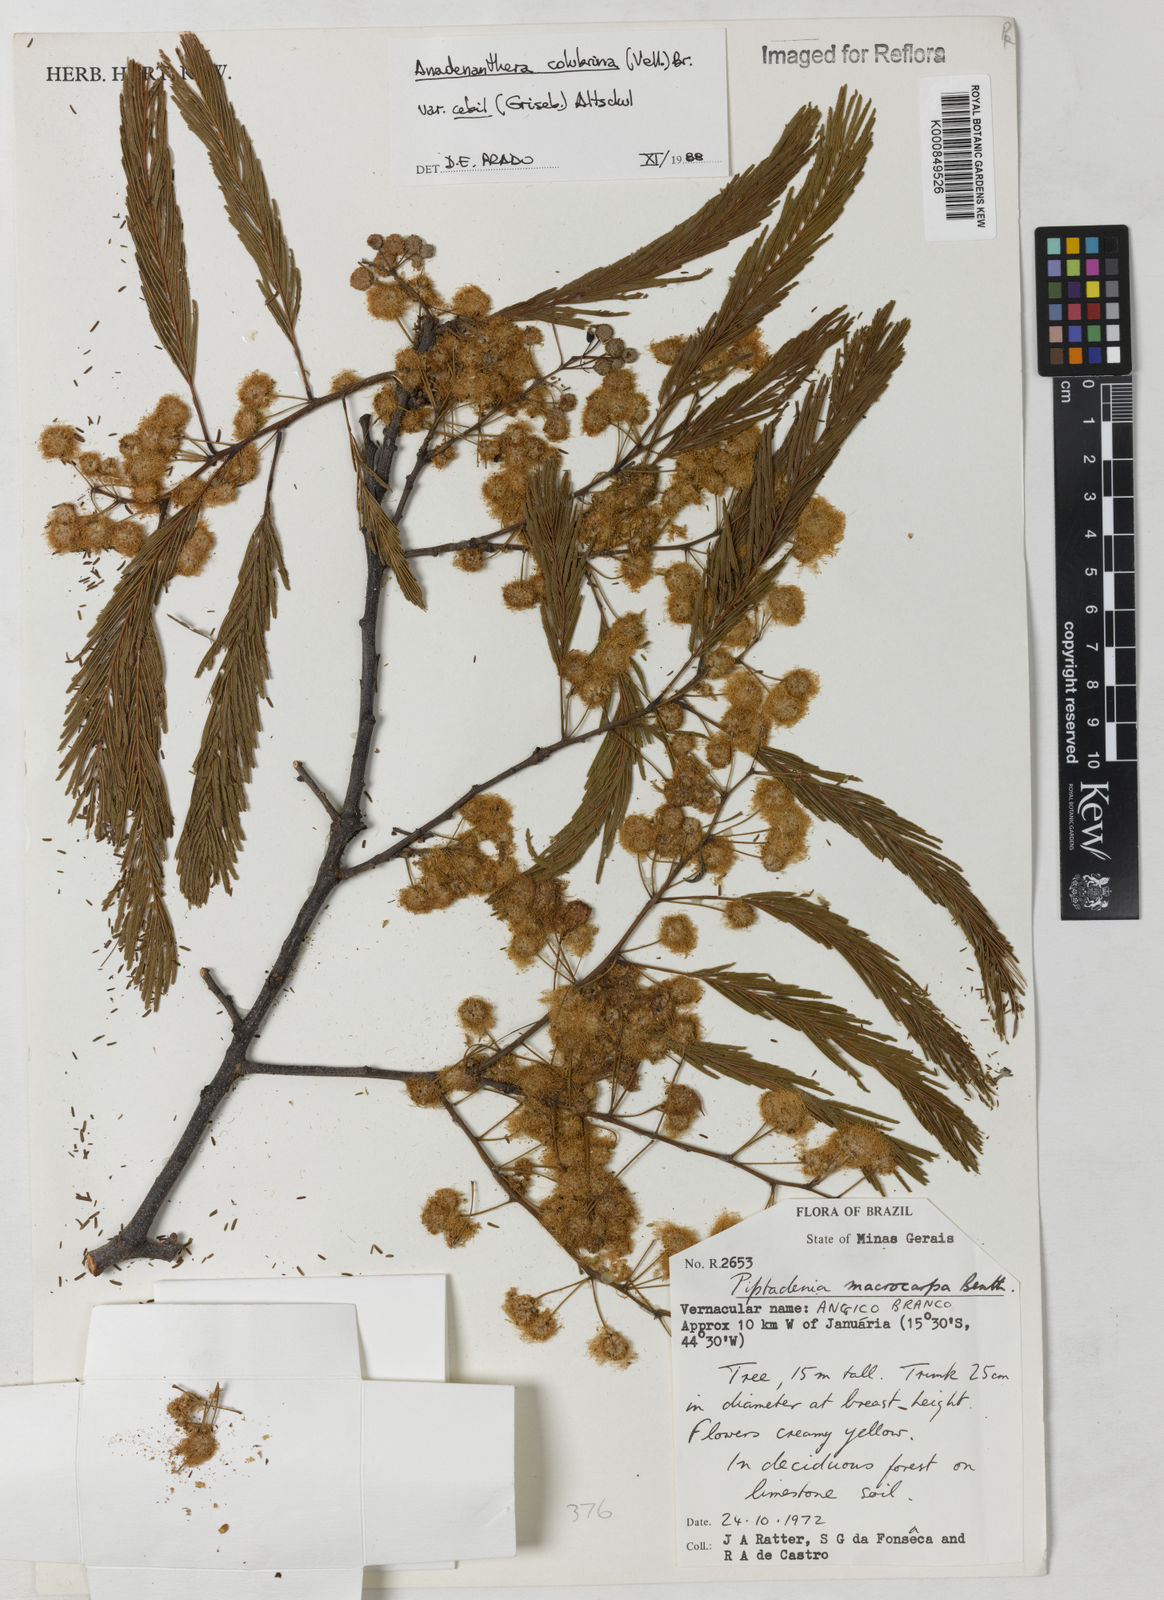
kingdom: Plantae
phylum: Tracheophyta
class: Magnoliopsida
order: Fabales
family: Fabaceae
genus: Anadenanthera
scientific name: Anadenanthera colubrina
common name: Curupay
